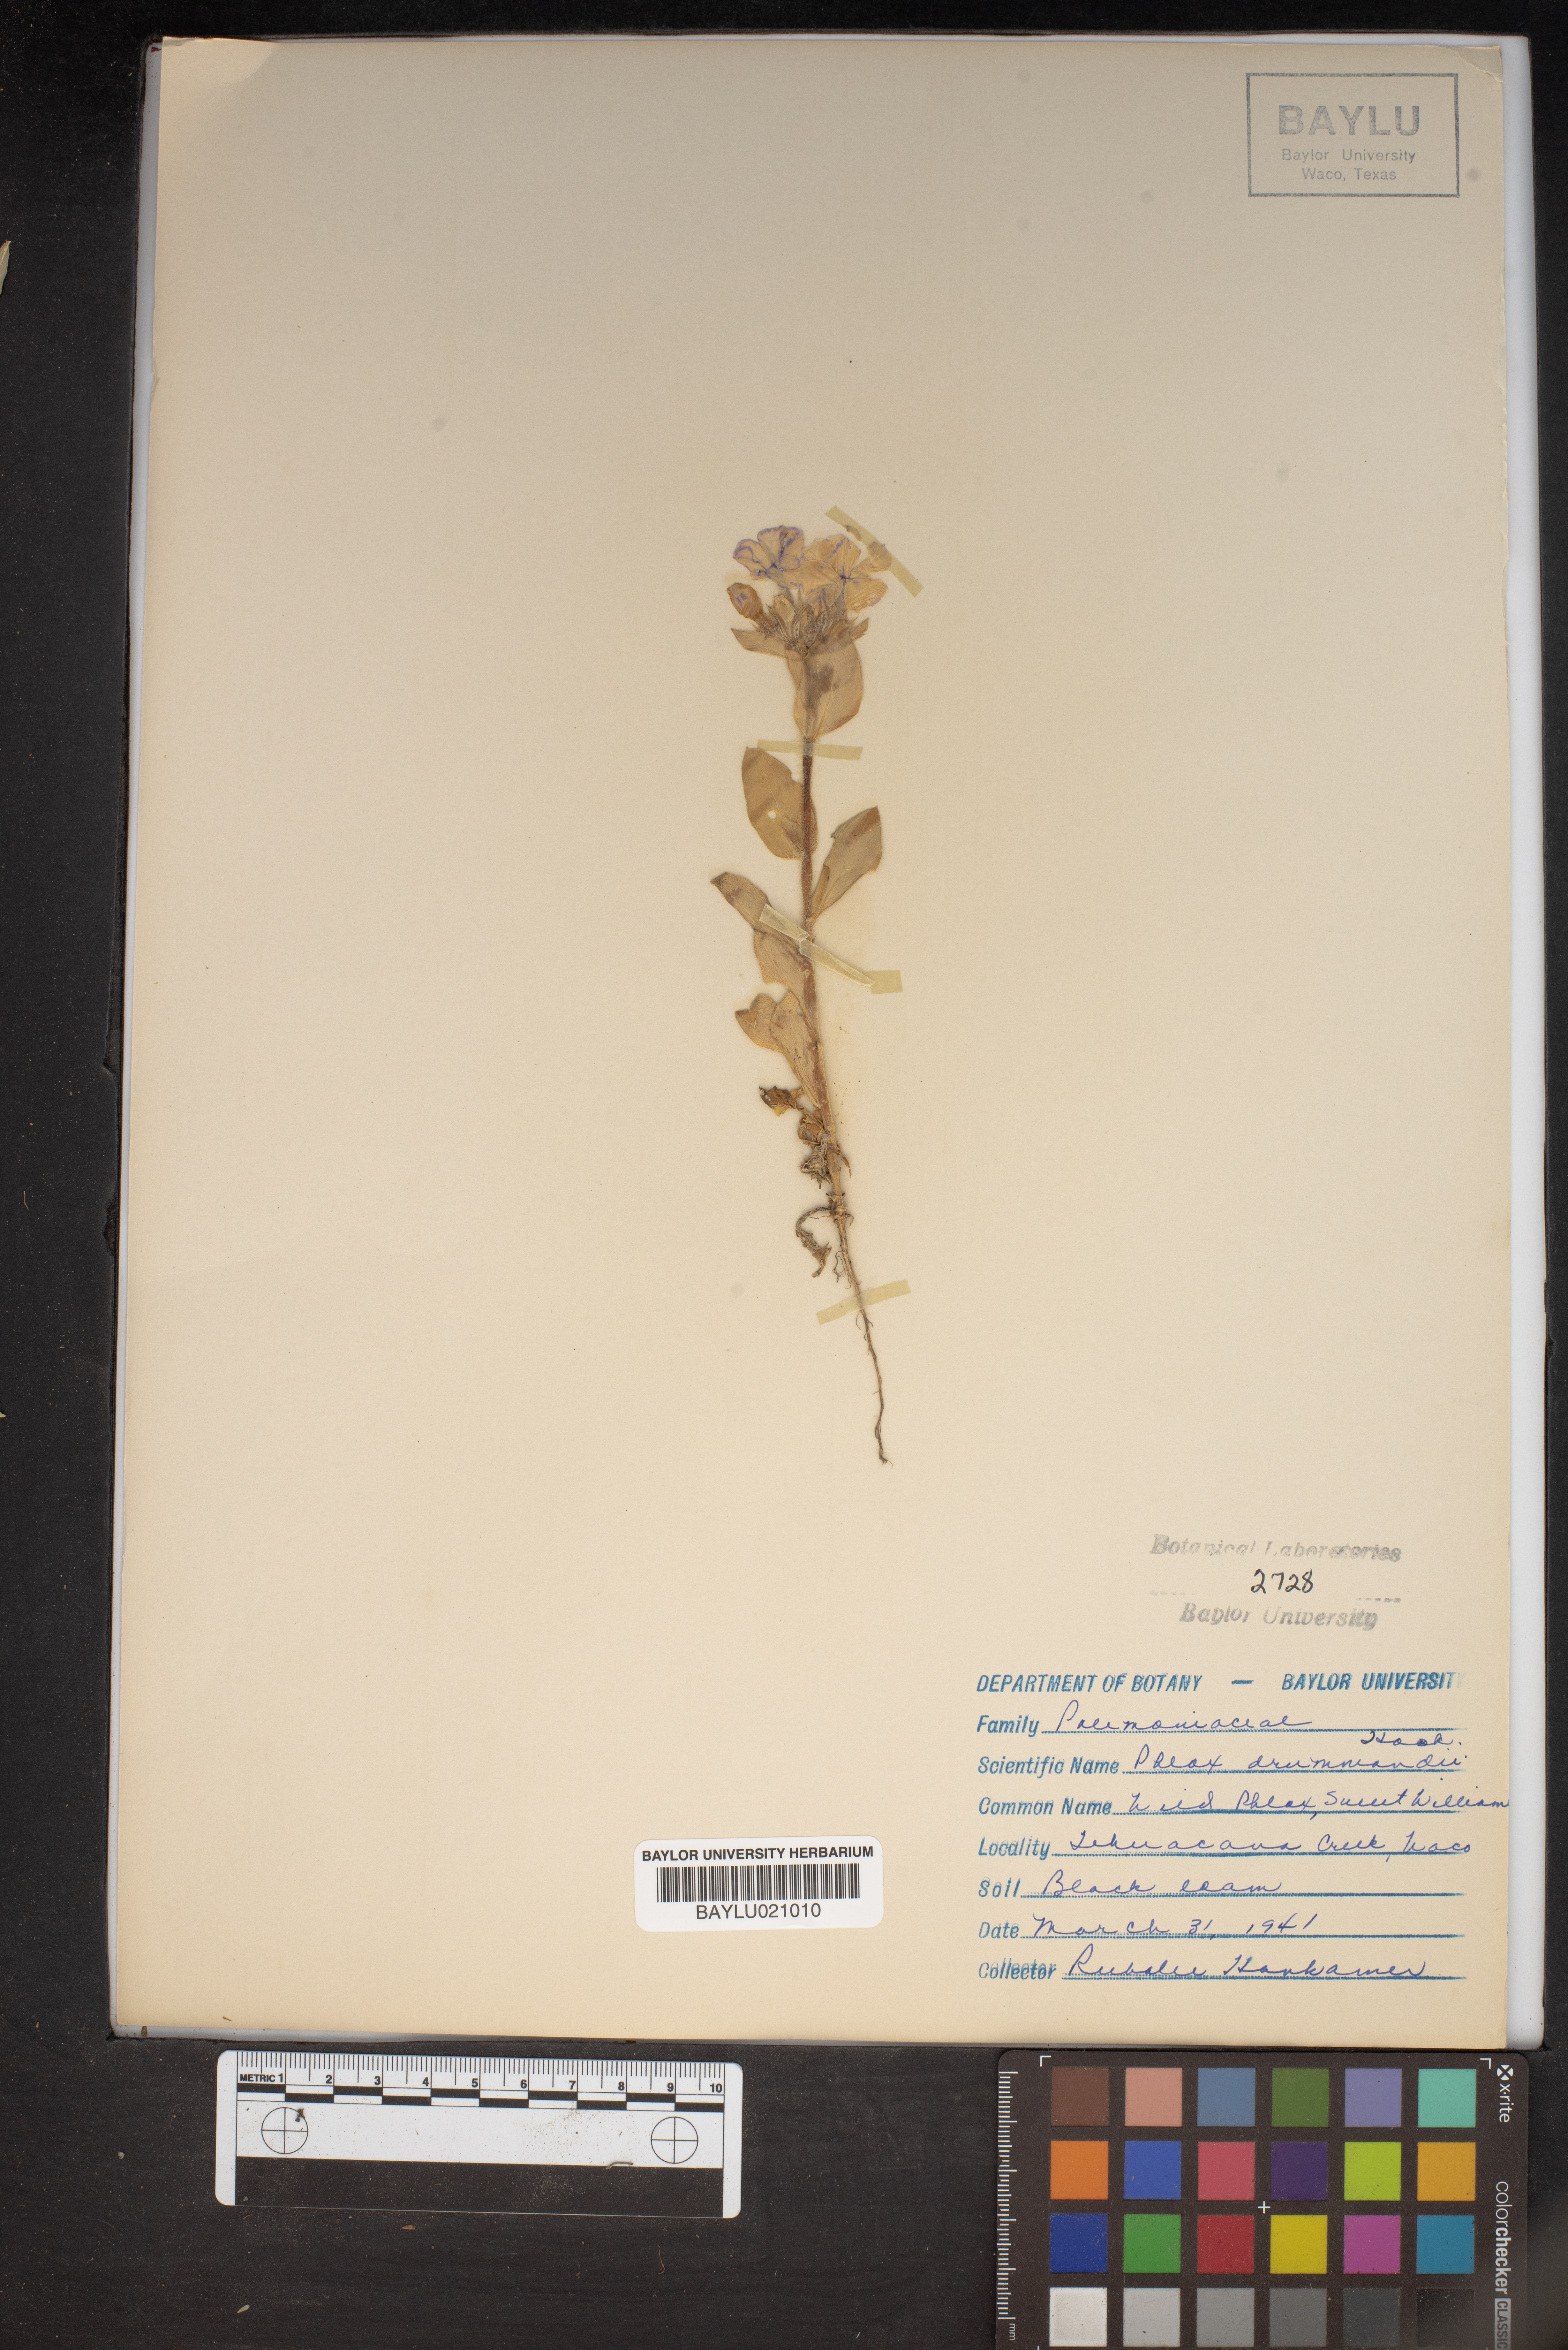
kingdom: Plantae
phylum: Tracheophyta
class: Magnoliopsida
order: Ericales
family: Polemoniaceae
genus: Phlox
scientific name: Phlox drummondii
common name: Drummond's phlox
